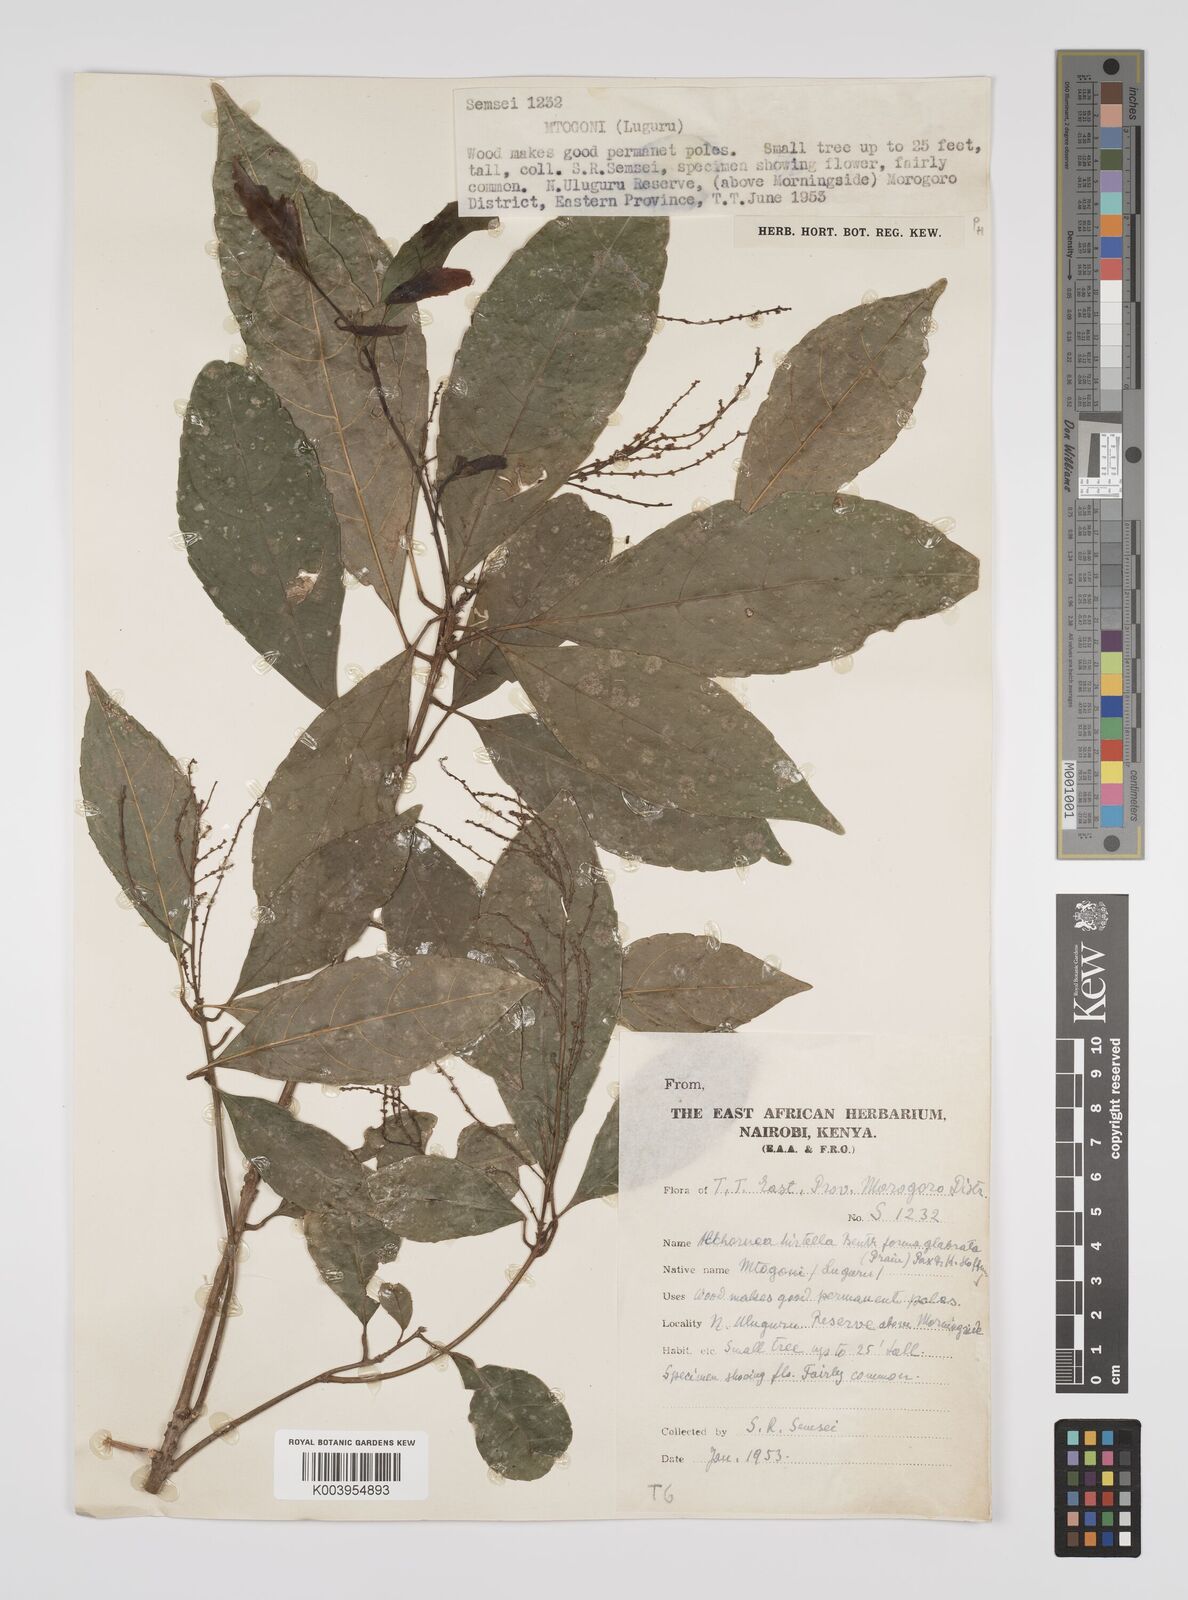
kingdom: Plantae
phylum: Tracheophyta
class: Magnoliopsida
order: Malpighiales
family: Euphorbiaceae
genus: Alchornea
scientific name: Alchornea hirtella
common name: Forest bead-string
